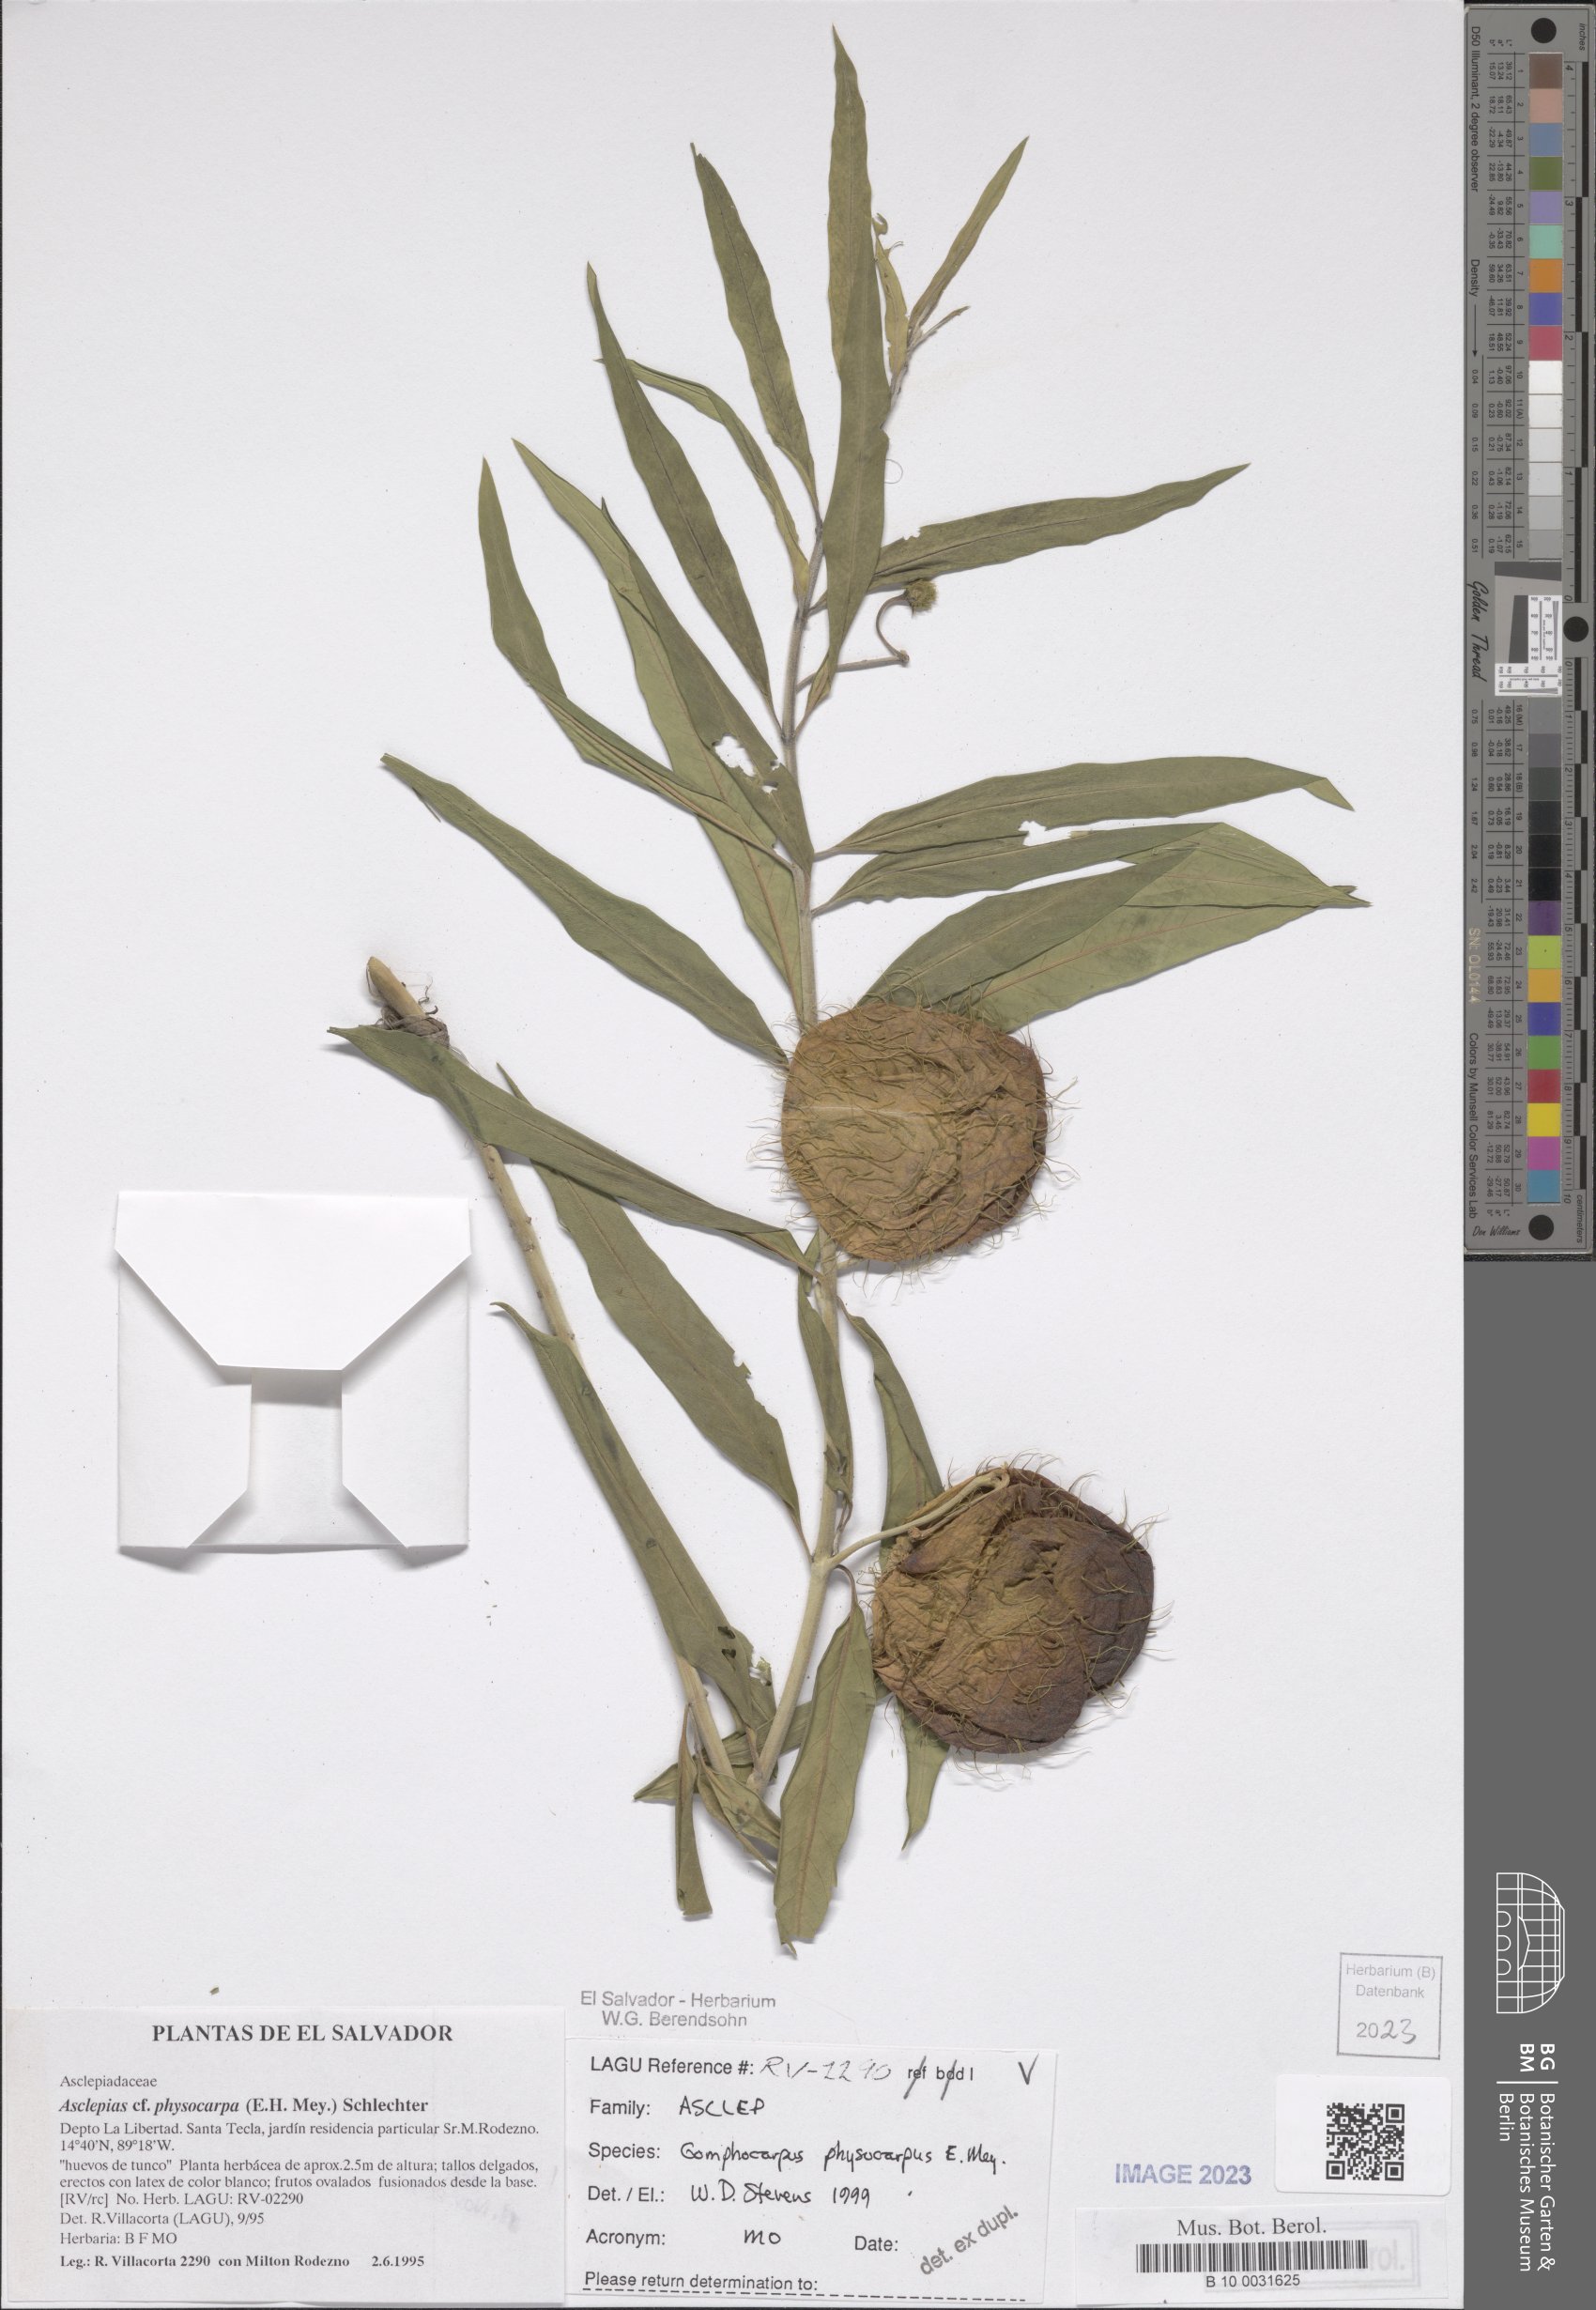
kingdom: Plantae
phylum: Tracheophyta
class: Magnoliopsida
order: Gentianales
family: Apocynaceae
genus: Gomphocarpus
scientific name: Gomphocarpus physocarpus
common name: Balloon cotton bush
